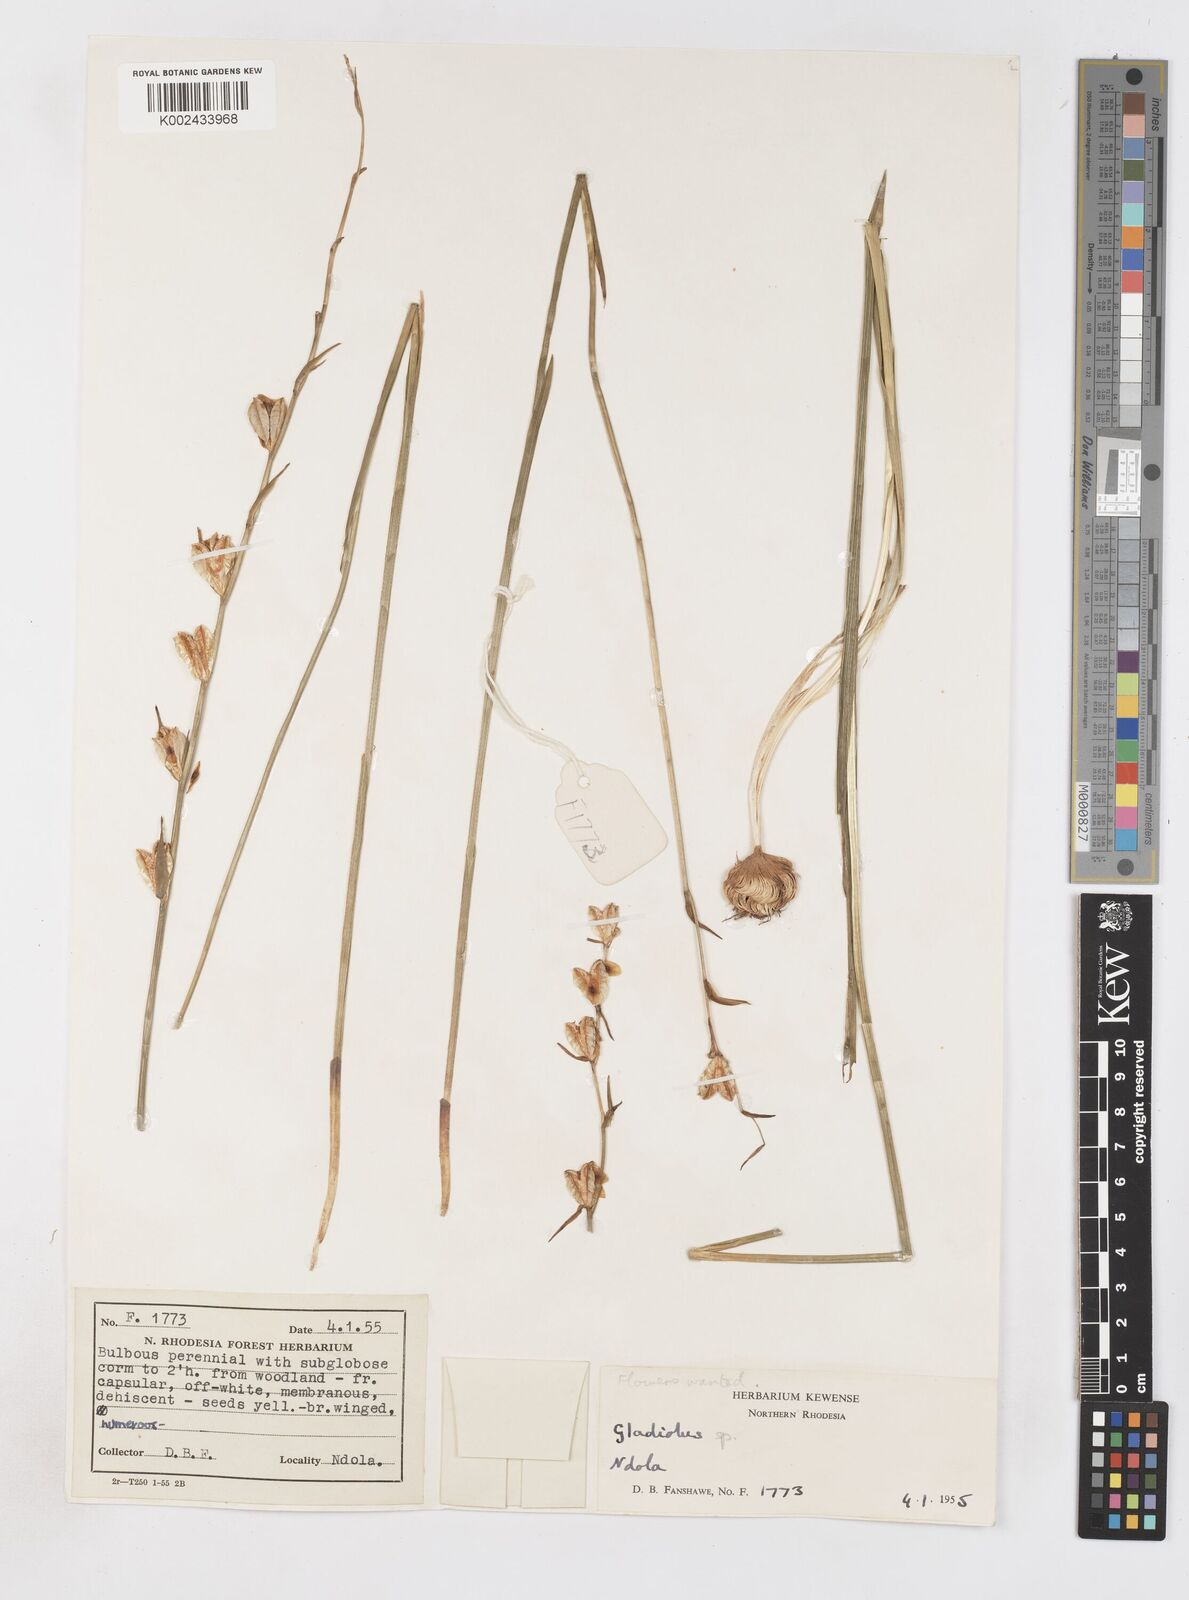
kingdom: Plantae
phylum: Tracheophyta
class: Liliopsida
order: Asparagales
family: Iridaceae
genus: Gladiolus
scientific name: Gladiolus atropurpureus
